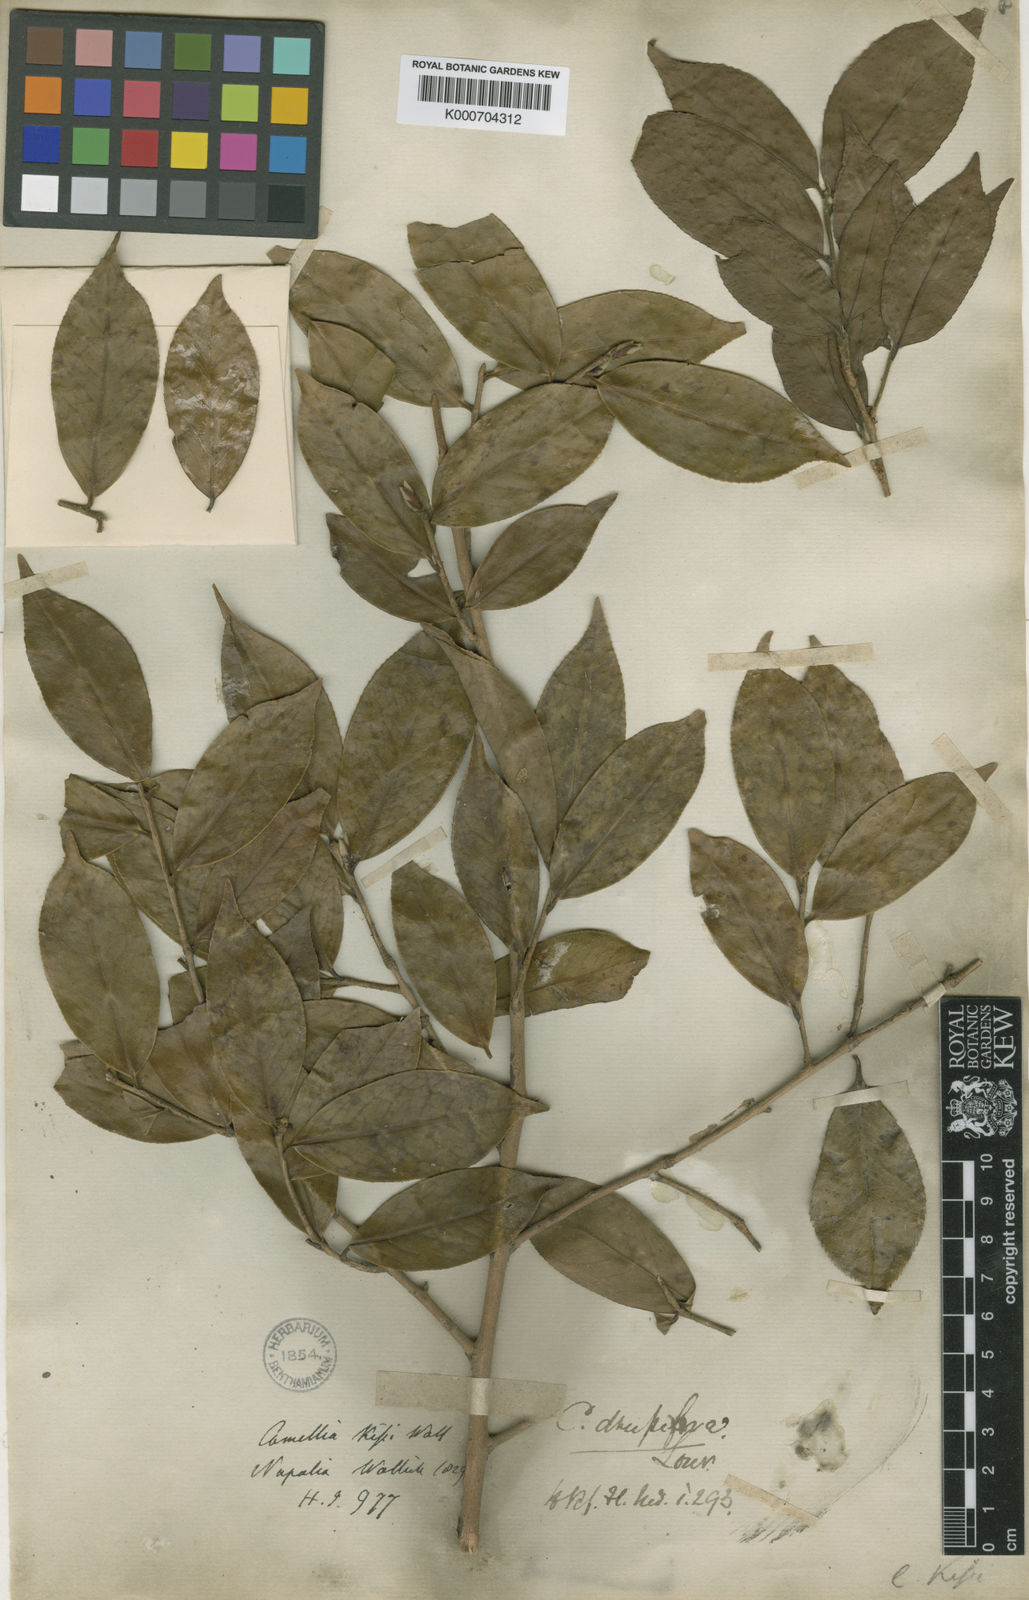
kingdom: Plantae
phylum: Tracheophyta
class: Magnoliopsida
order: Ericales
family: Theaceae
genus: Camellia
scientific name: Camellia kissii
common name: Nepal camellia
